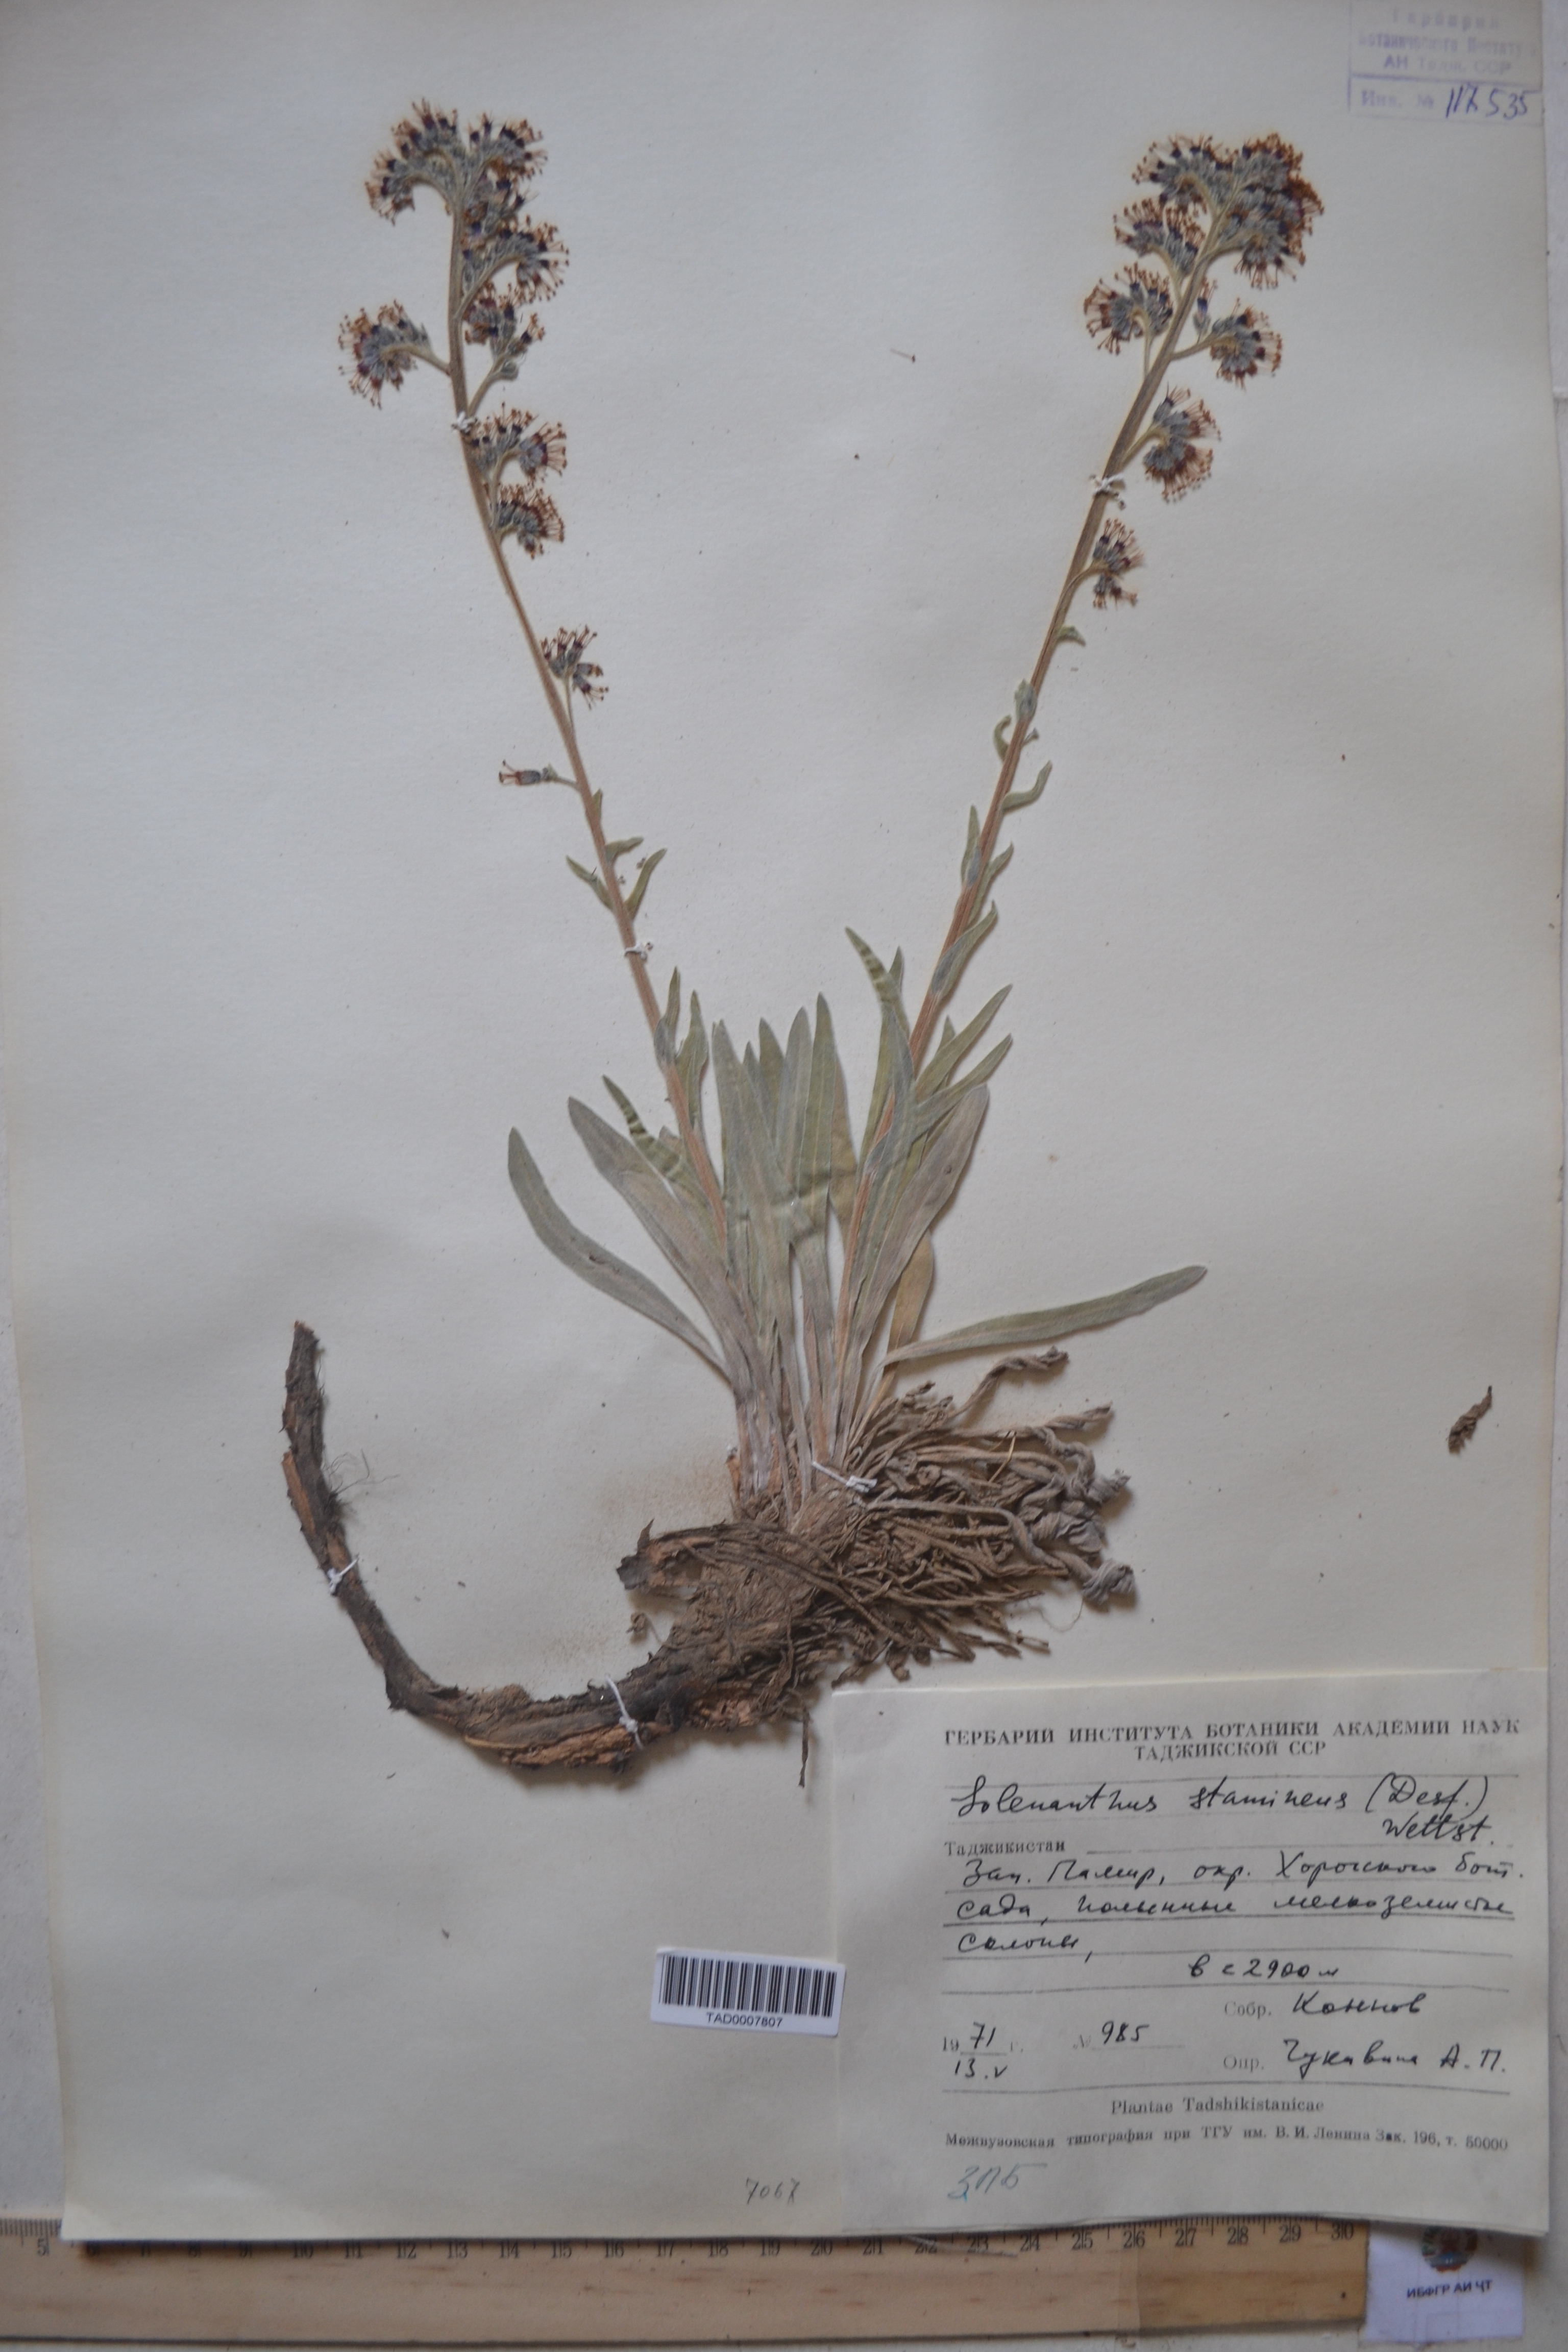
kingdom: Plantae
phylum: Tracheophyta
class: Magnoliopsida
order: Boraginales
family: Boraginaceae
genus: Solenanthus
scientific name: Solenanthus stamineus
